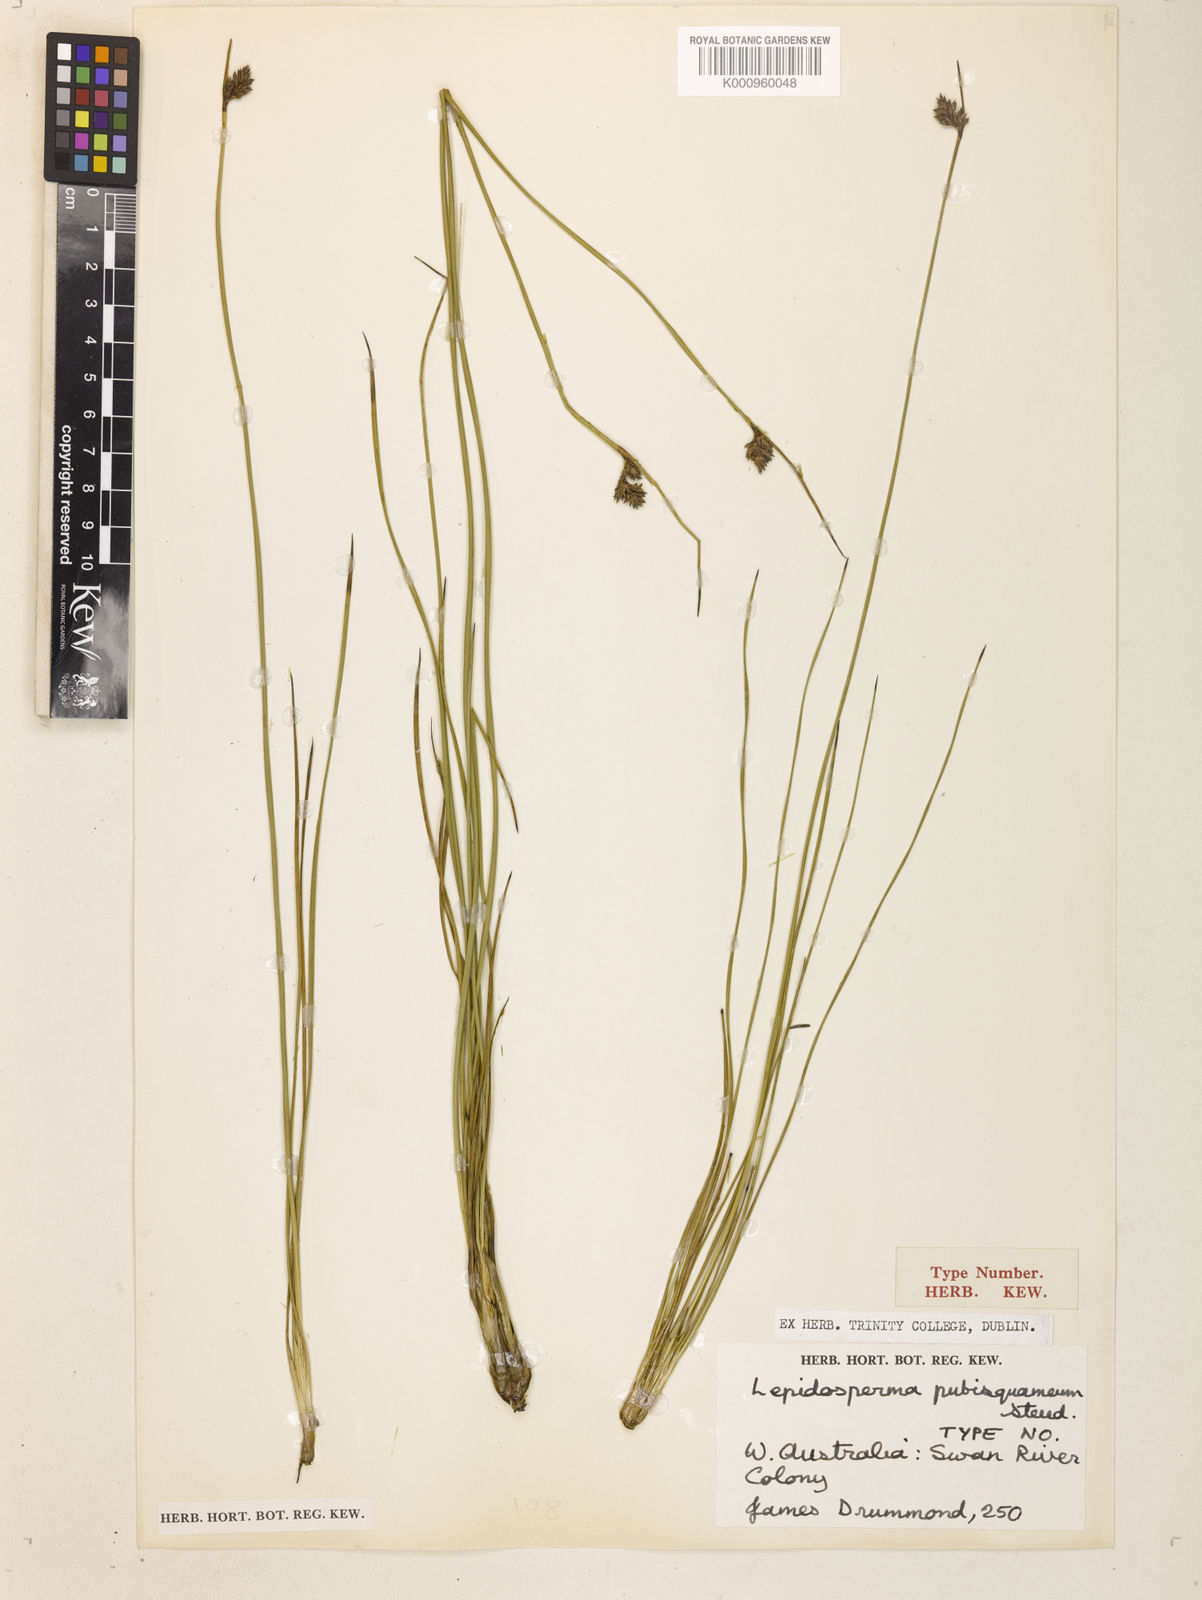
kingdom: Plantae
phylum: Tracheophyta
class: Liliopsida
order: Poales
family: Cyperaceae
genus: Lepidosperma
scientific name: Lepidosperma pubisquameum
